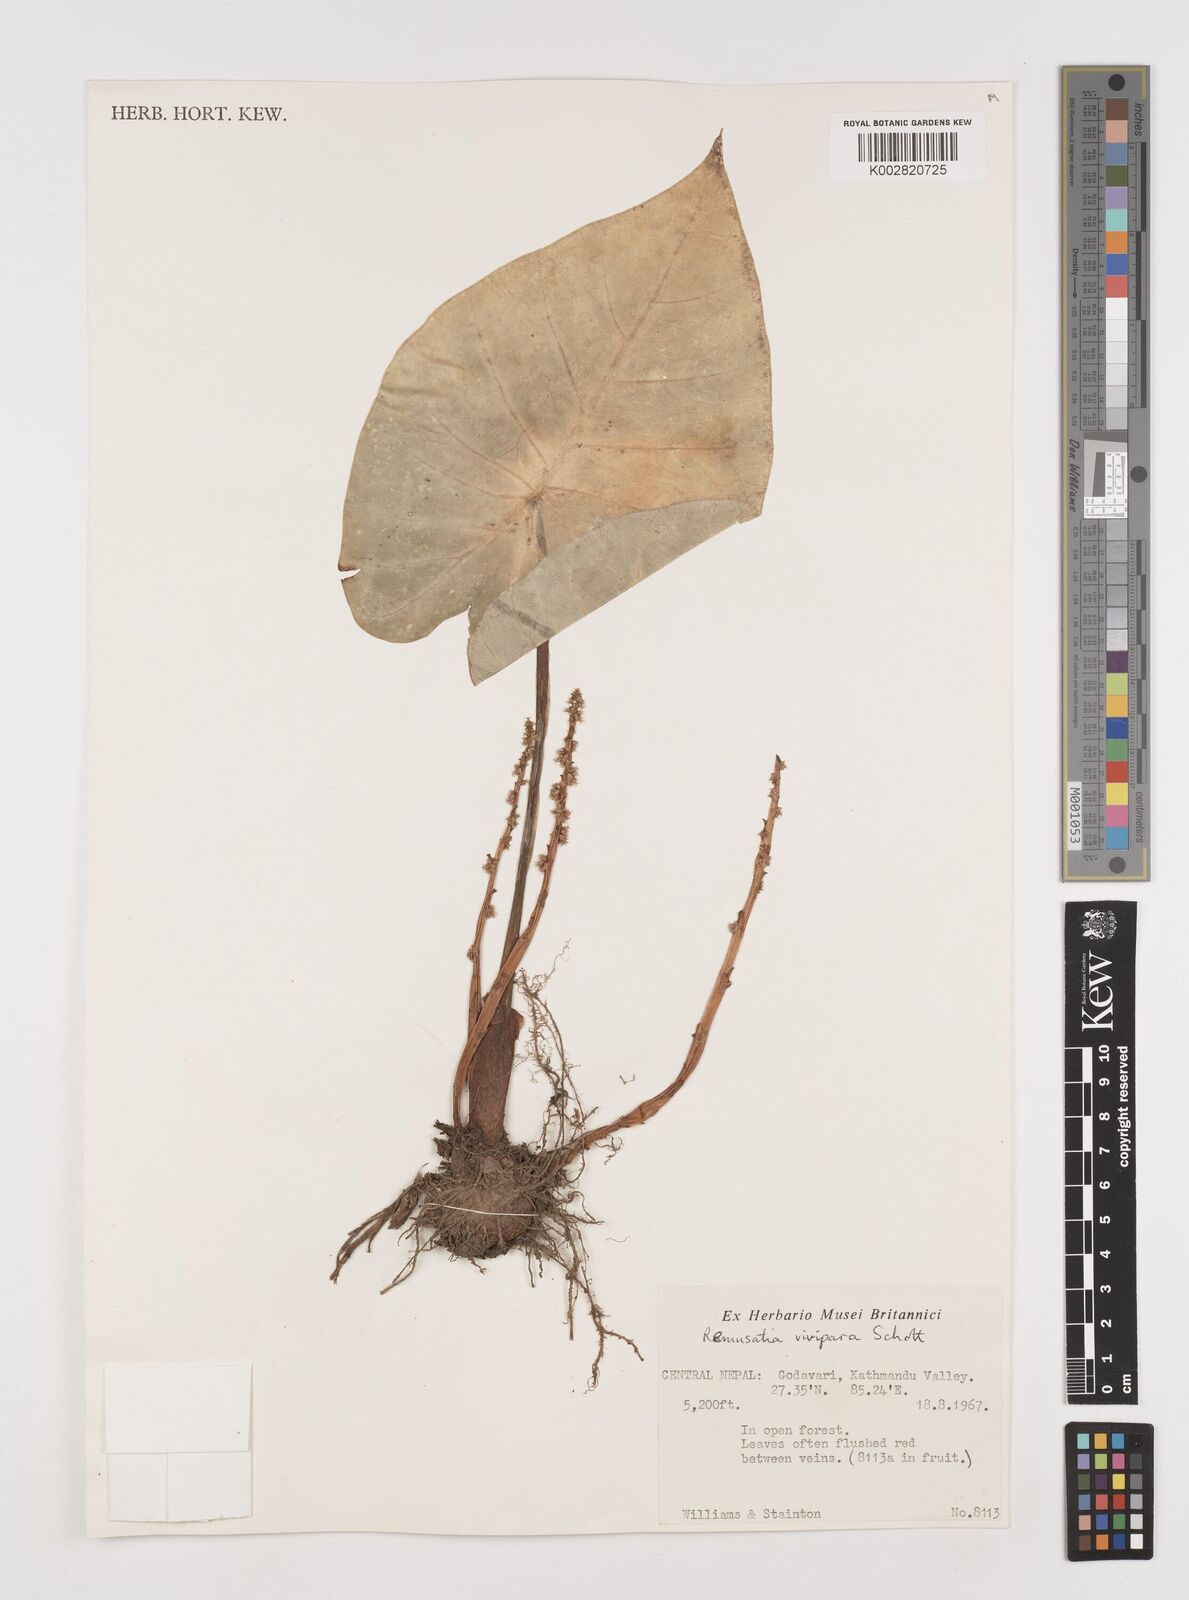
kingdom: Plantae
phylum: Tracheophyta
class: Liliopsida
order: Alismatales
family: Araceae
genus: Remusatia
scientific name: Remusatia vivipara
